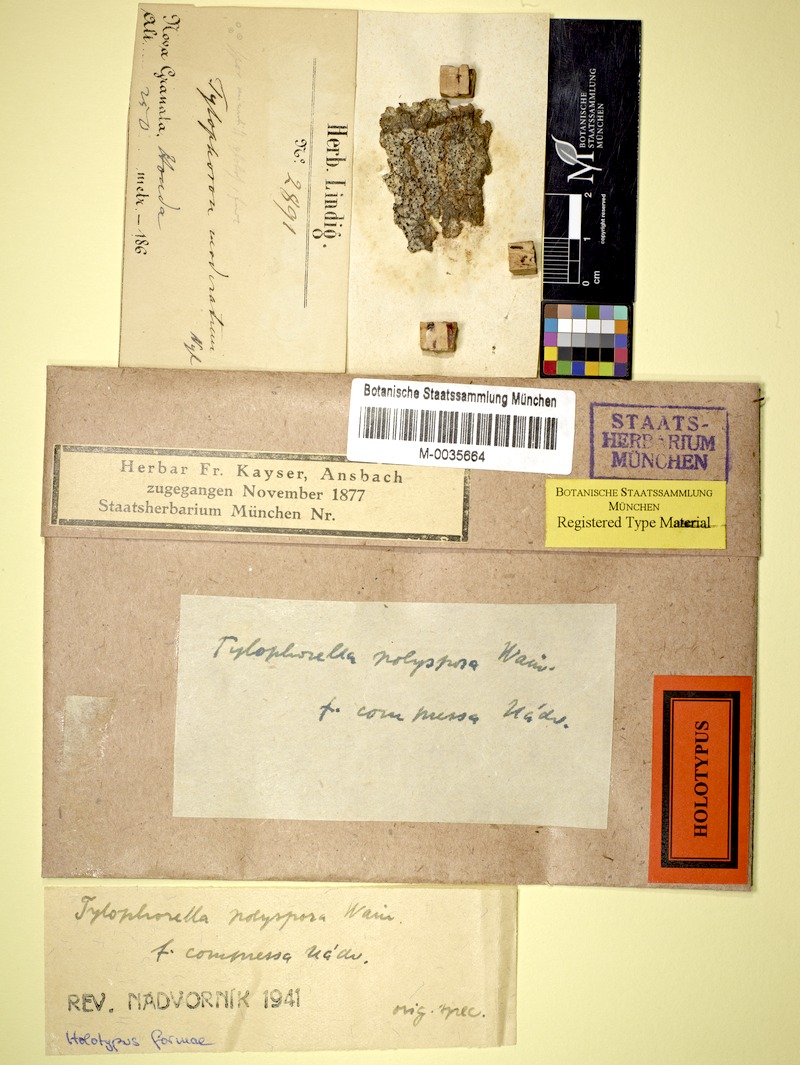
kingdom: Fungi
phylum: Ascomycota
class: Arthoniomycetes
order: Arthoniales
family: Arthoniaceae
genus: Tylophorella
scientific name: Tylophorella pyrenocarpoides
